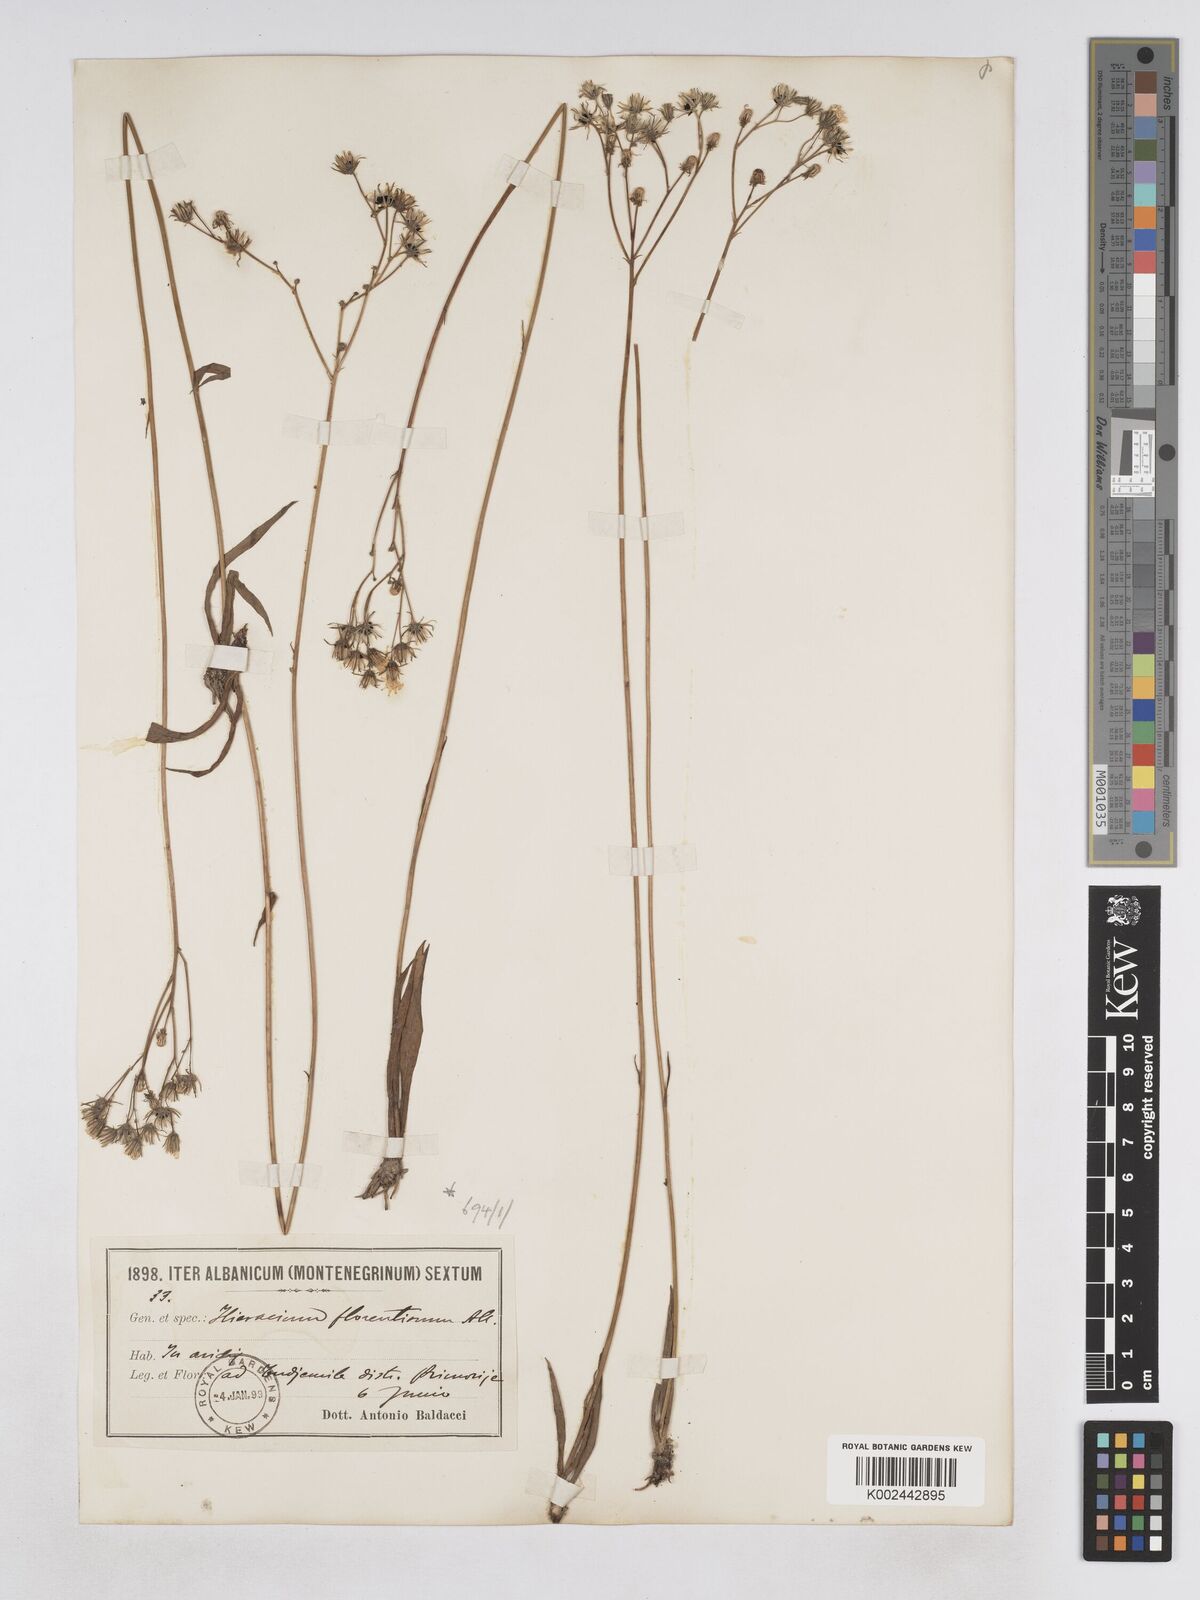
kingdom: Plantae
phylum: Tracheophyta
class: Magnoliopsida
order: Asterales
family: Asteraceae
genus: Pilosella
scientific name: Pilosella pavichii
